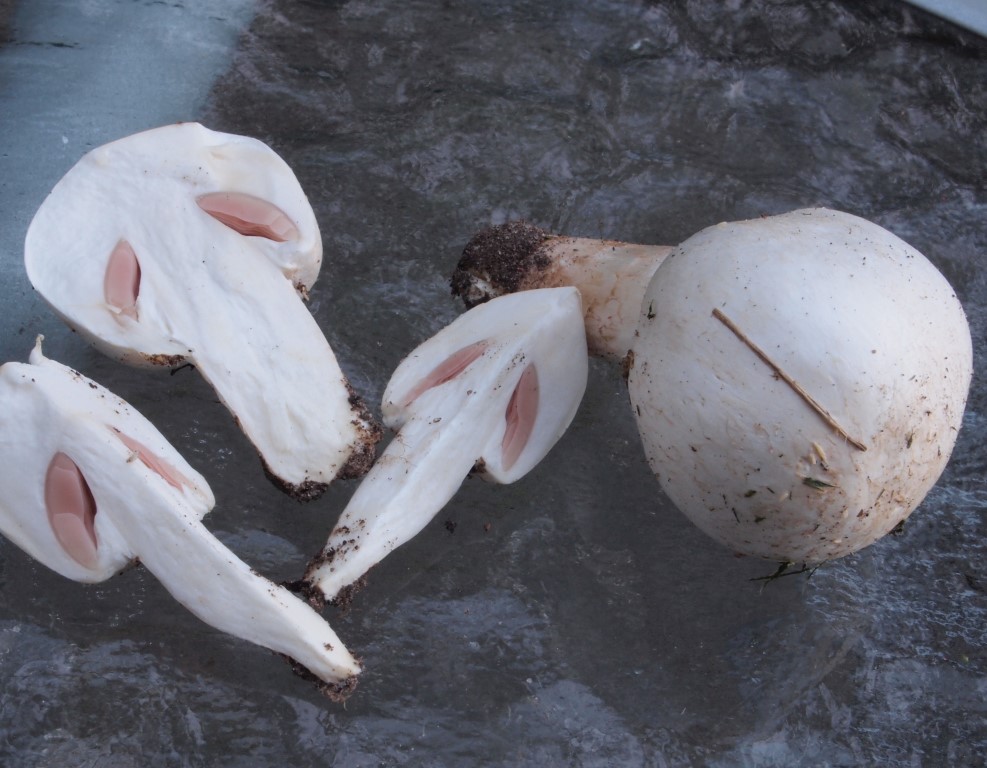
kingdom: Fungi
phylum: Basidiomycota
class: Agaricomycetes
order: Agaricales
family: Agaricaceae
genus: Agaricus
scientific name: Agaricus campestris
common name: mark-champignon
